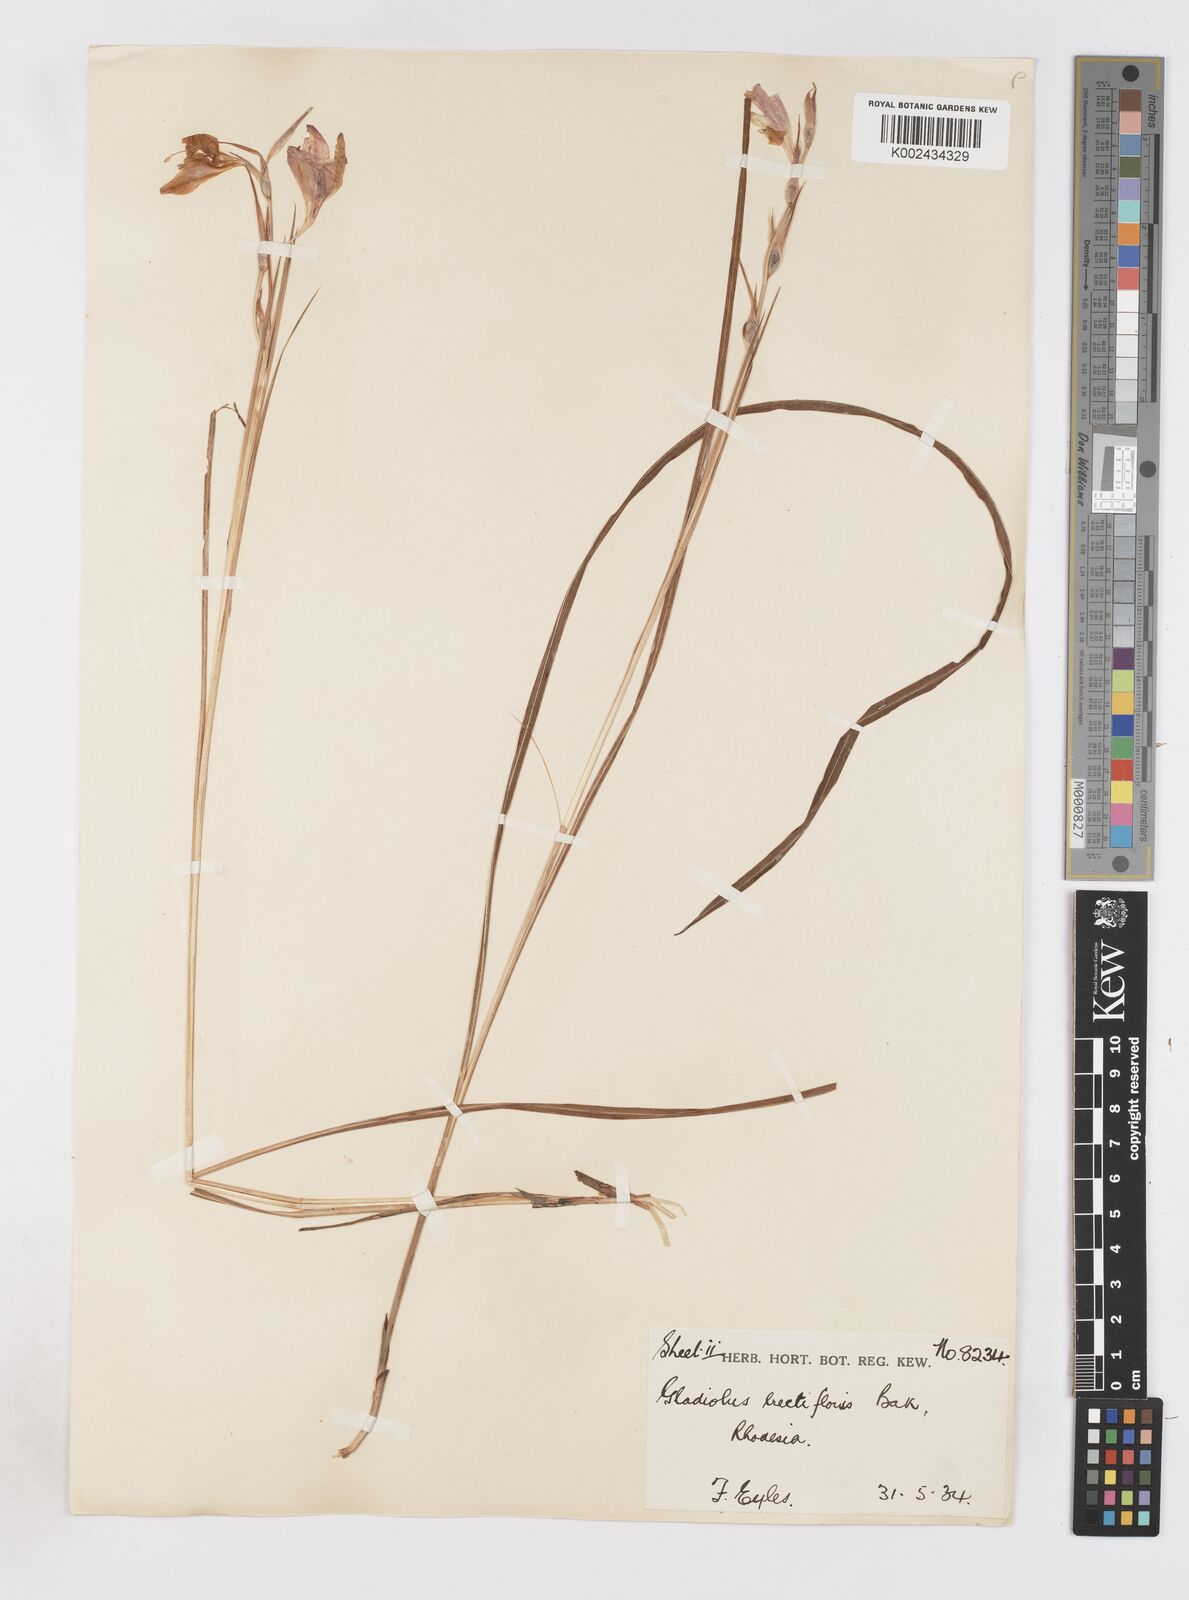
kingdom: Plantae
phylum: Tracheophyta
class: Liliopsida
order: Asparagales
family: Iridaceae
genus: Gladiolus
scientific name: Gladiolus erectiflorus
